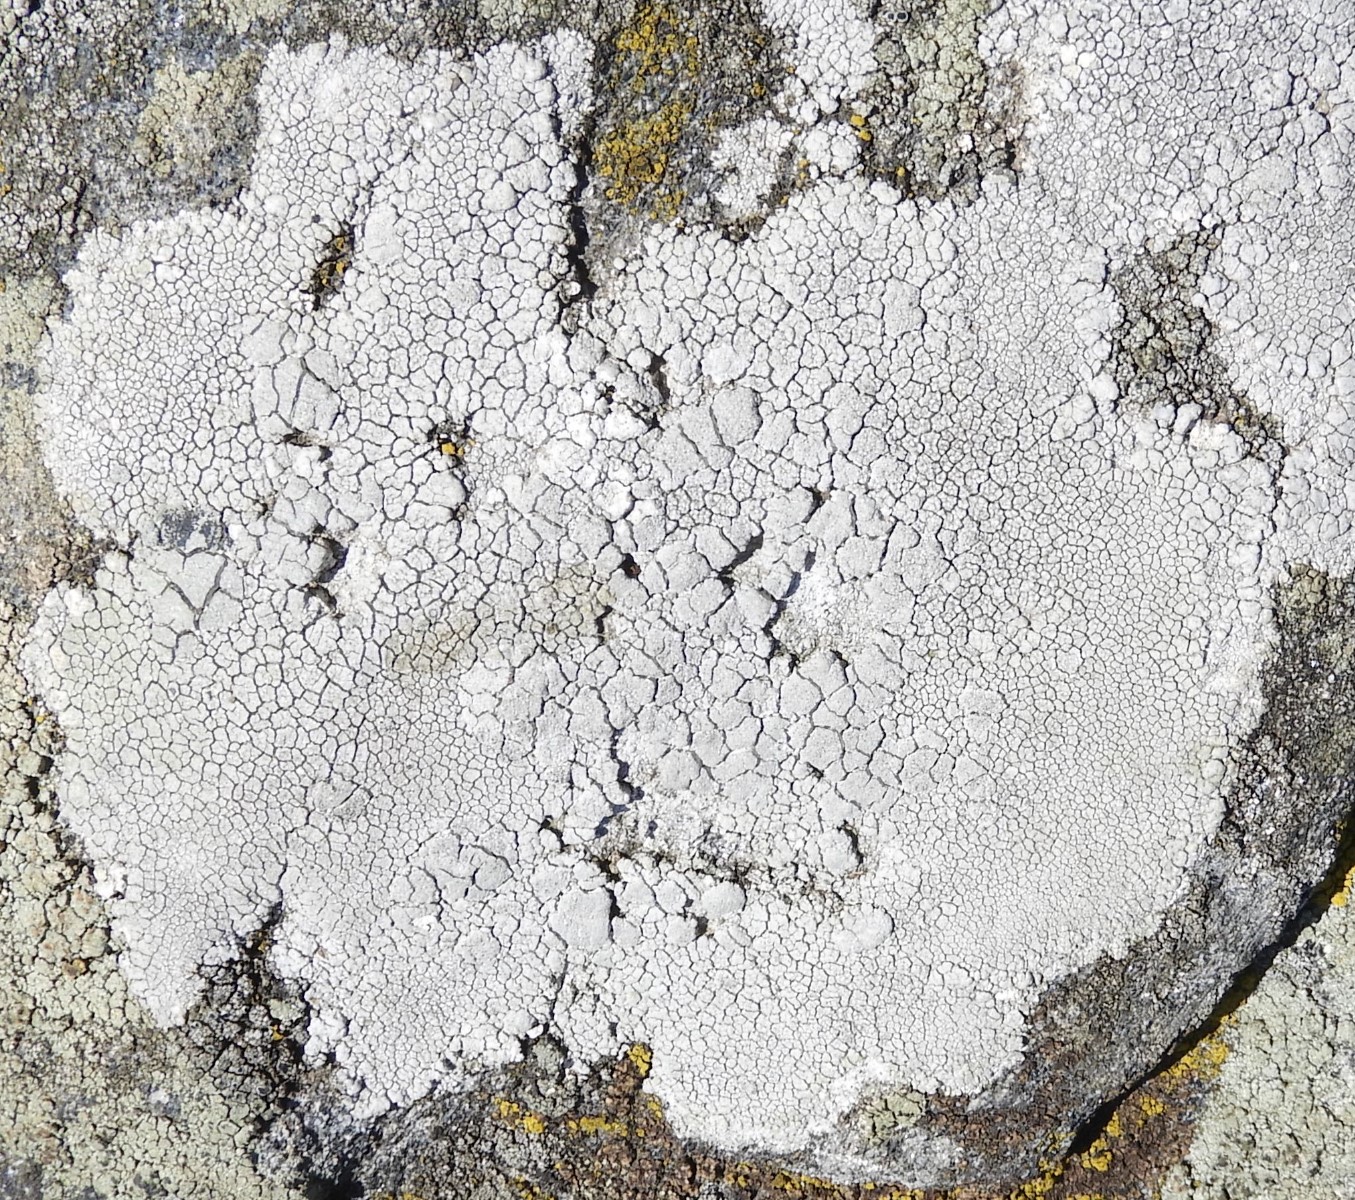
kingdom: Fungi
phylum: Ascomycota
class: Lecanoromycetes
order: Lecanorales
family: Lecanoraceae
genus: Glaucomaria
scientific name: Glaucomaria rupicola
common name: stengærde-kantskivelav
